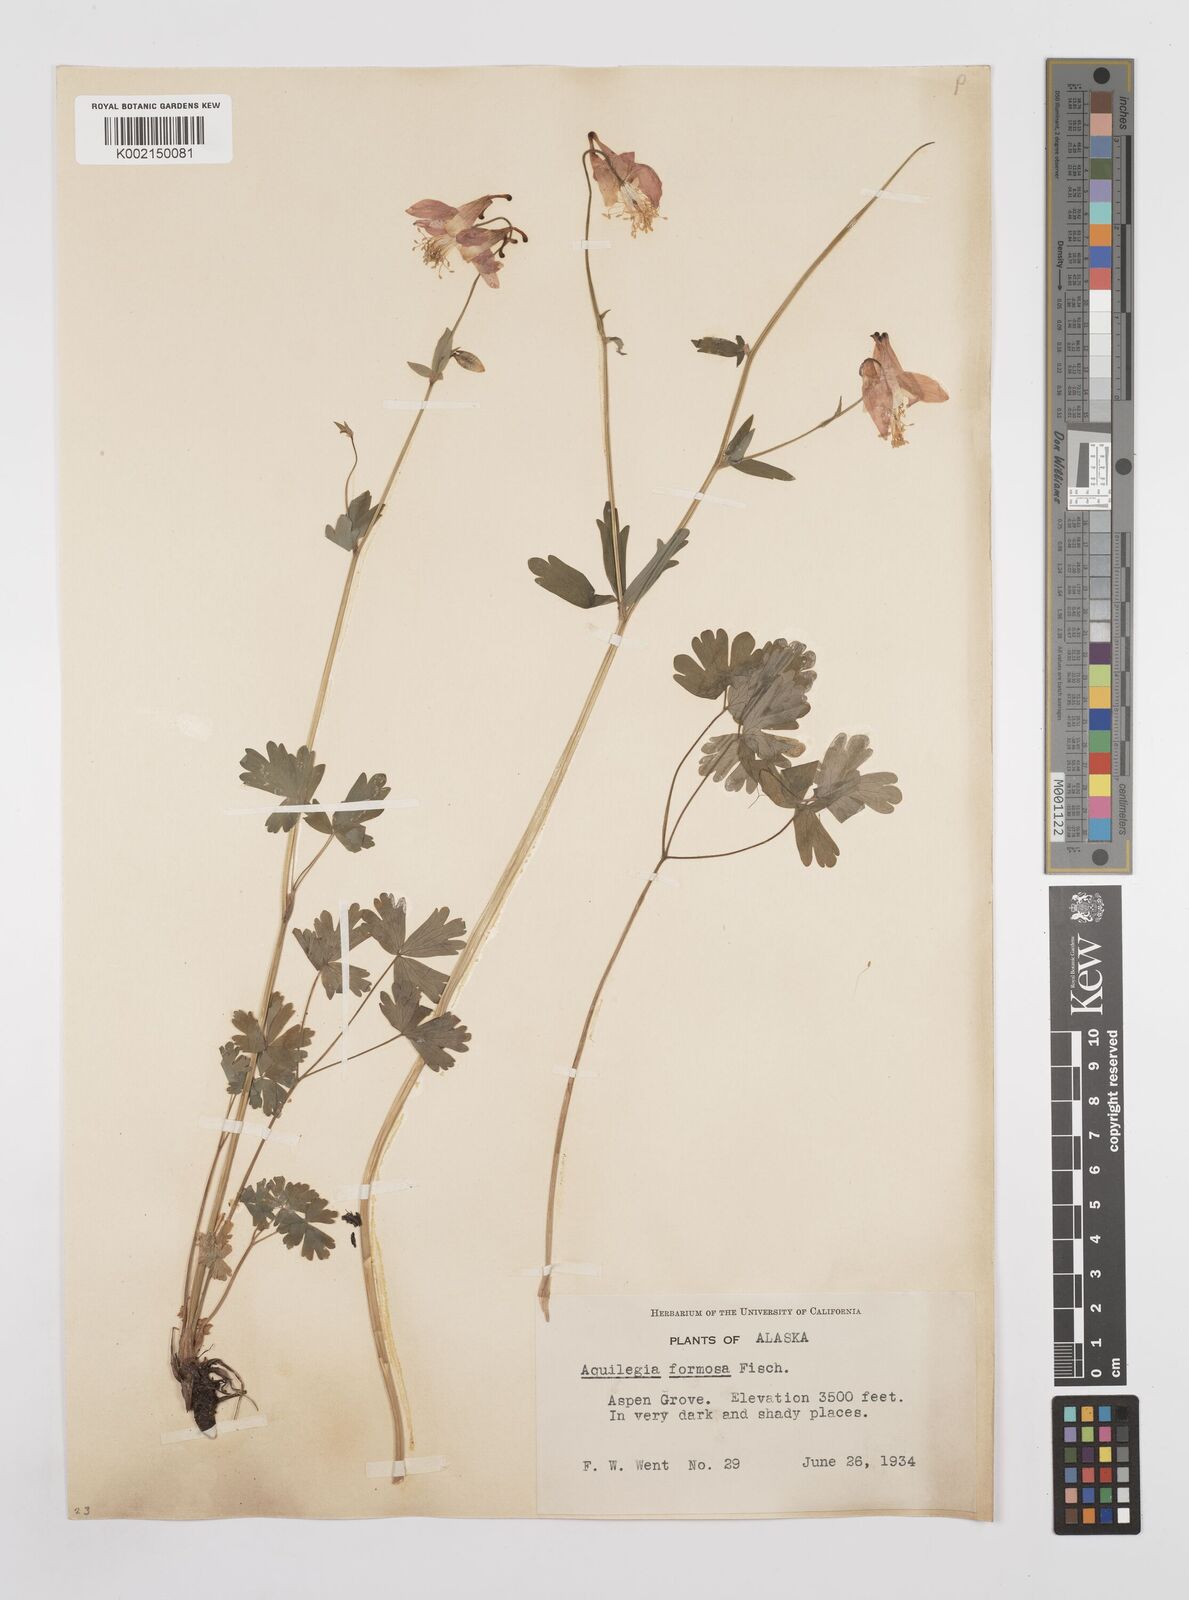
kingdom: Plantae
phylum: Tracheophyta
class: Magnoliopsida
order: Ranunculales
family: Ranunculaceae
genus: Aquilegia
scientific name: Aquilegia
